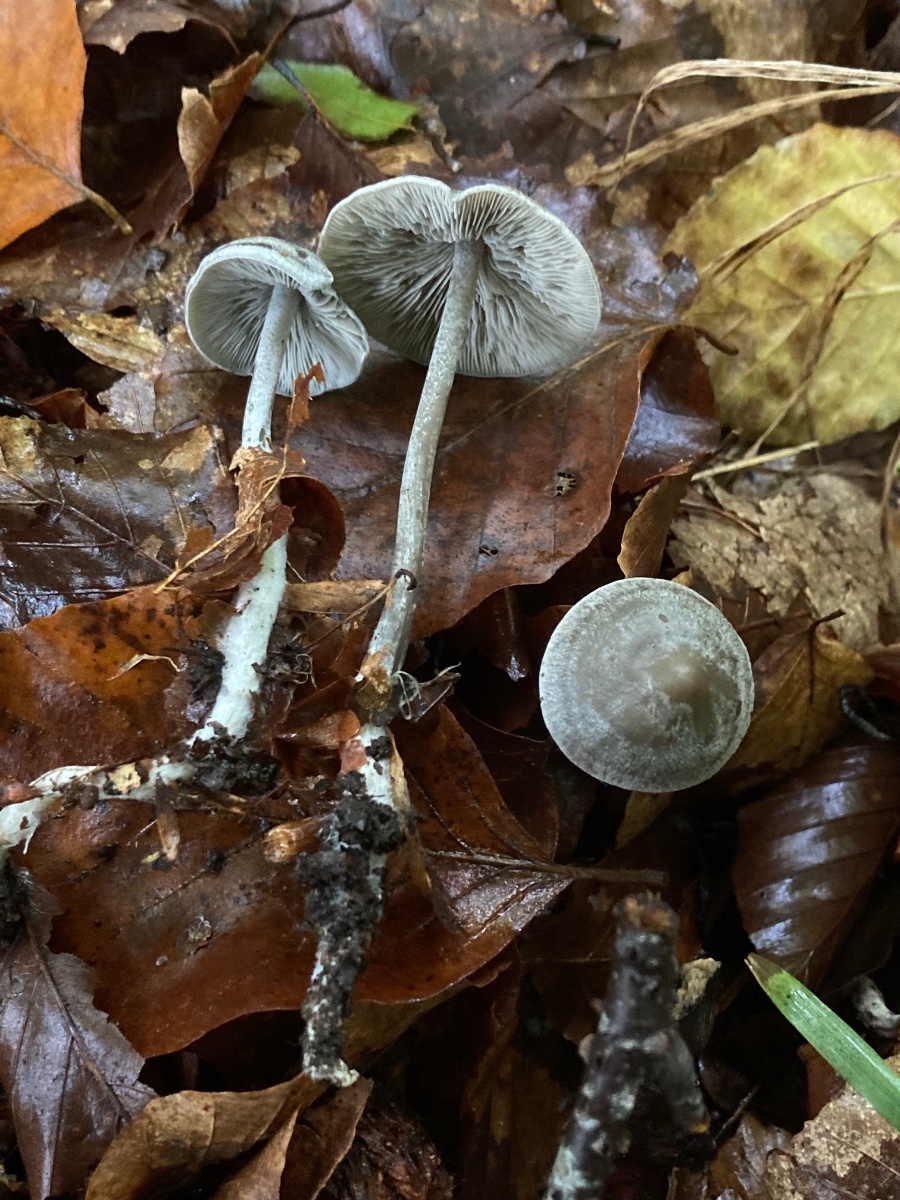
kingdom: Fungi
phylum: Basidiomycota
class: Agaricomycetes
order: Agaricales
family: Lyophyllaceae
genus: Tephrocybe
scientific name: Tephrocybe rancida
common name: mel-gråblad
